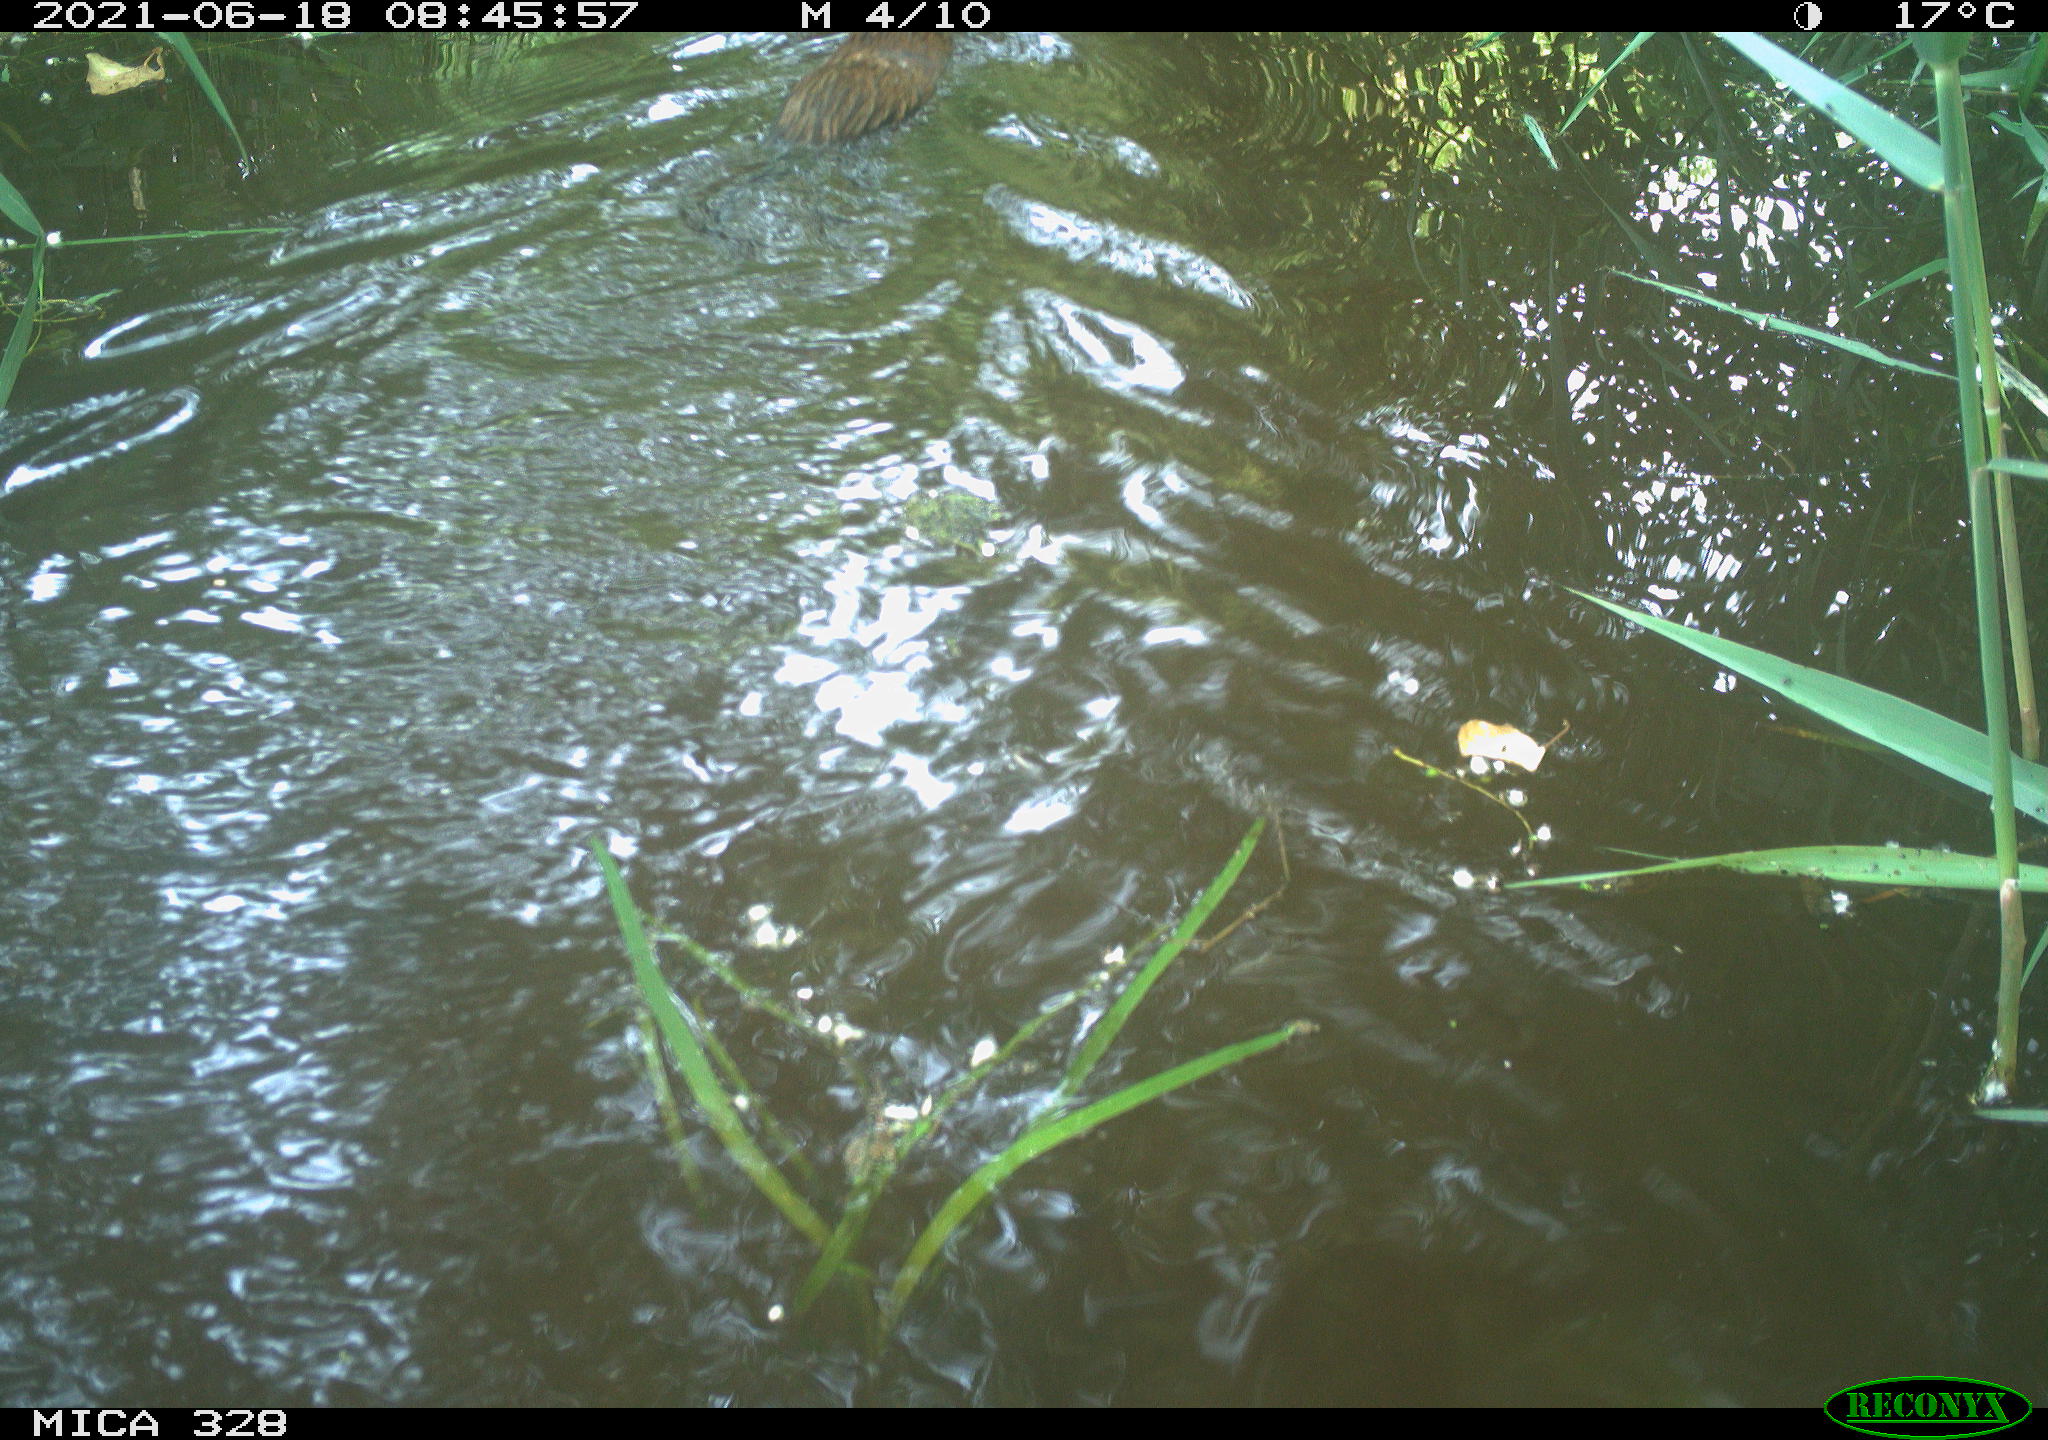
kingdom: Animalia
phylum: Chordata
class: Mammalia
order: Rodentia
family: Cricetidae
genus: Ondatra
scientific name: Ondatra zibethicus
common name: Muskrat
